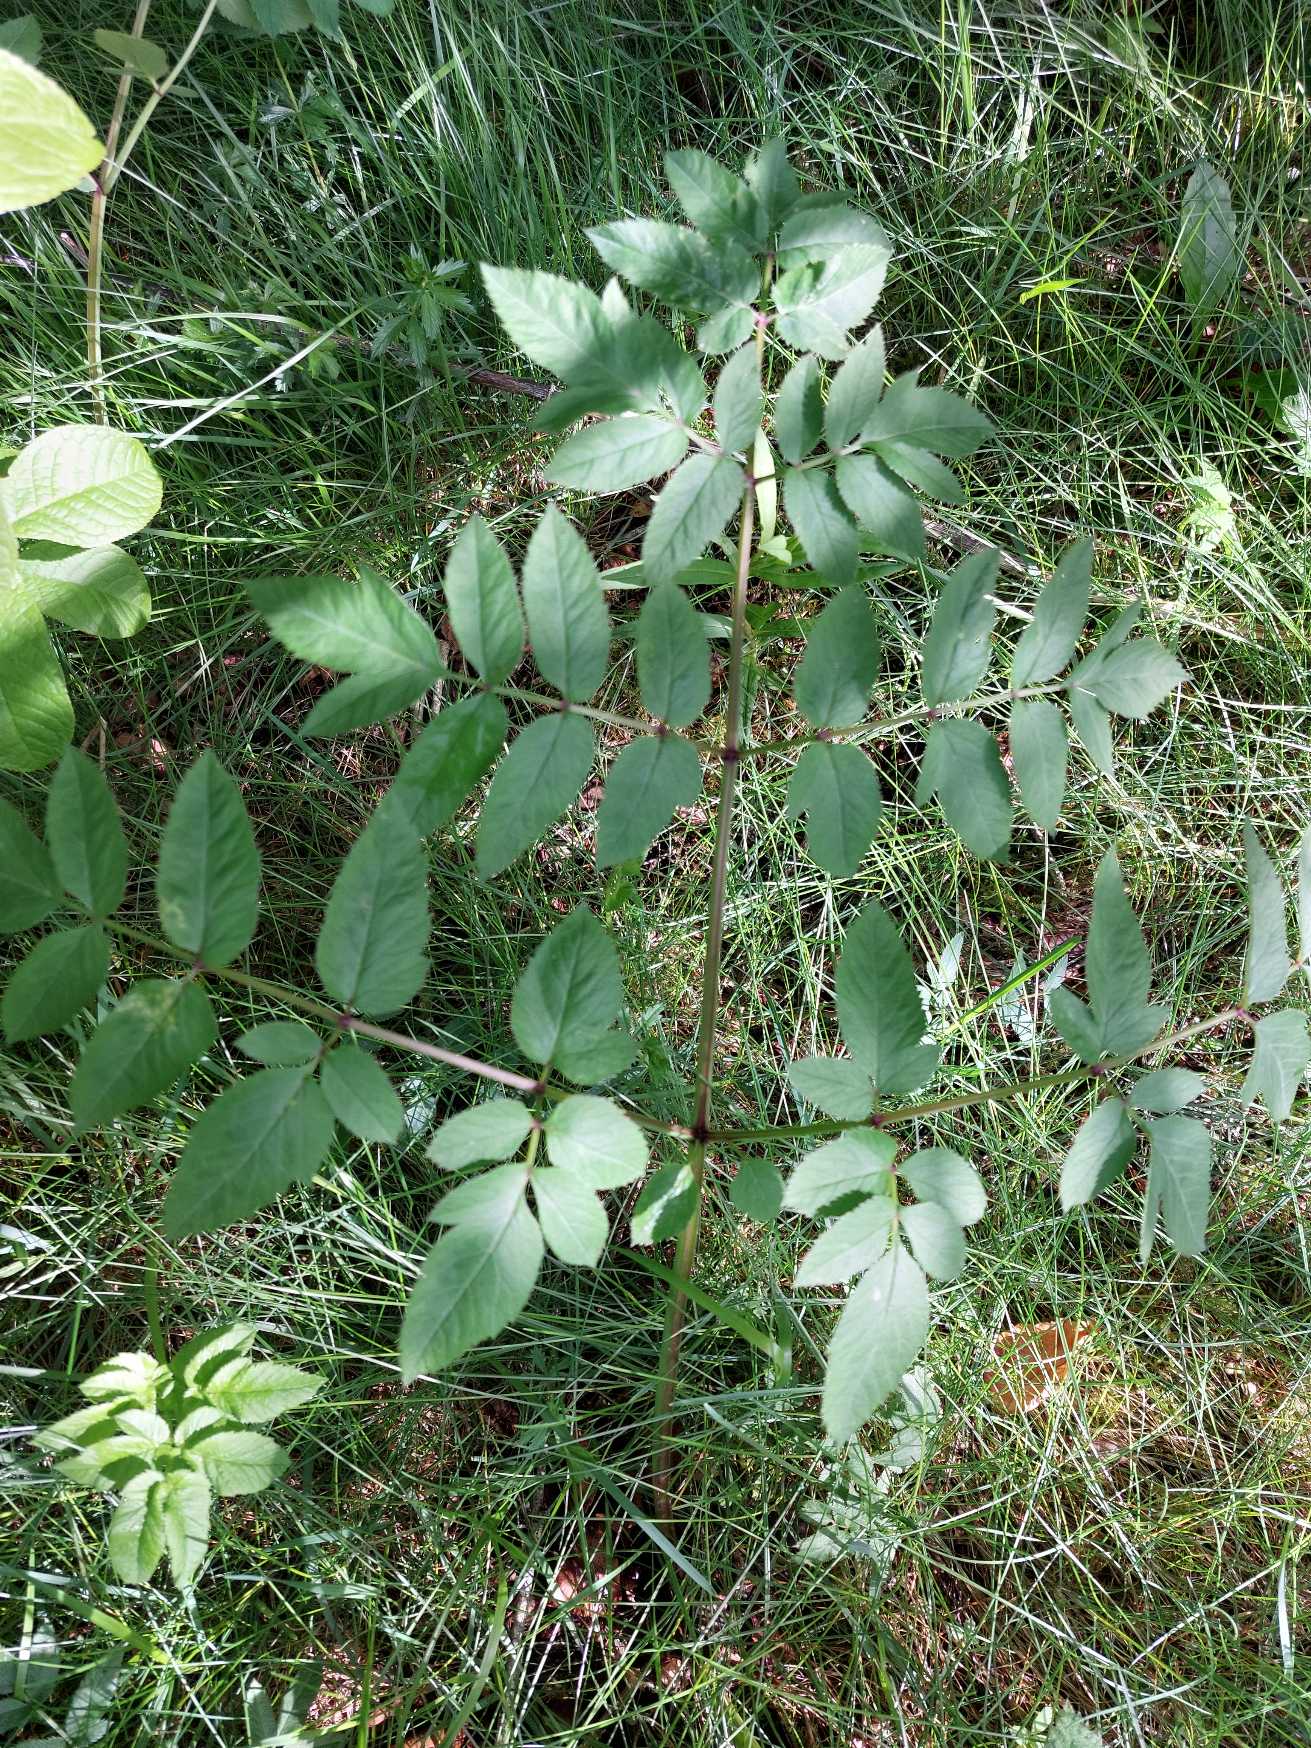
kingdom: Plantae
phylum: Tracheophyta
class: Magnoliopsida
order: Apiales
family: Apiaceae
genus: Angelica
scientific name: Angelica sylvestris
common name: Angelik
